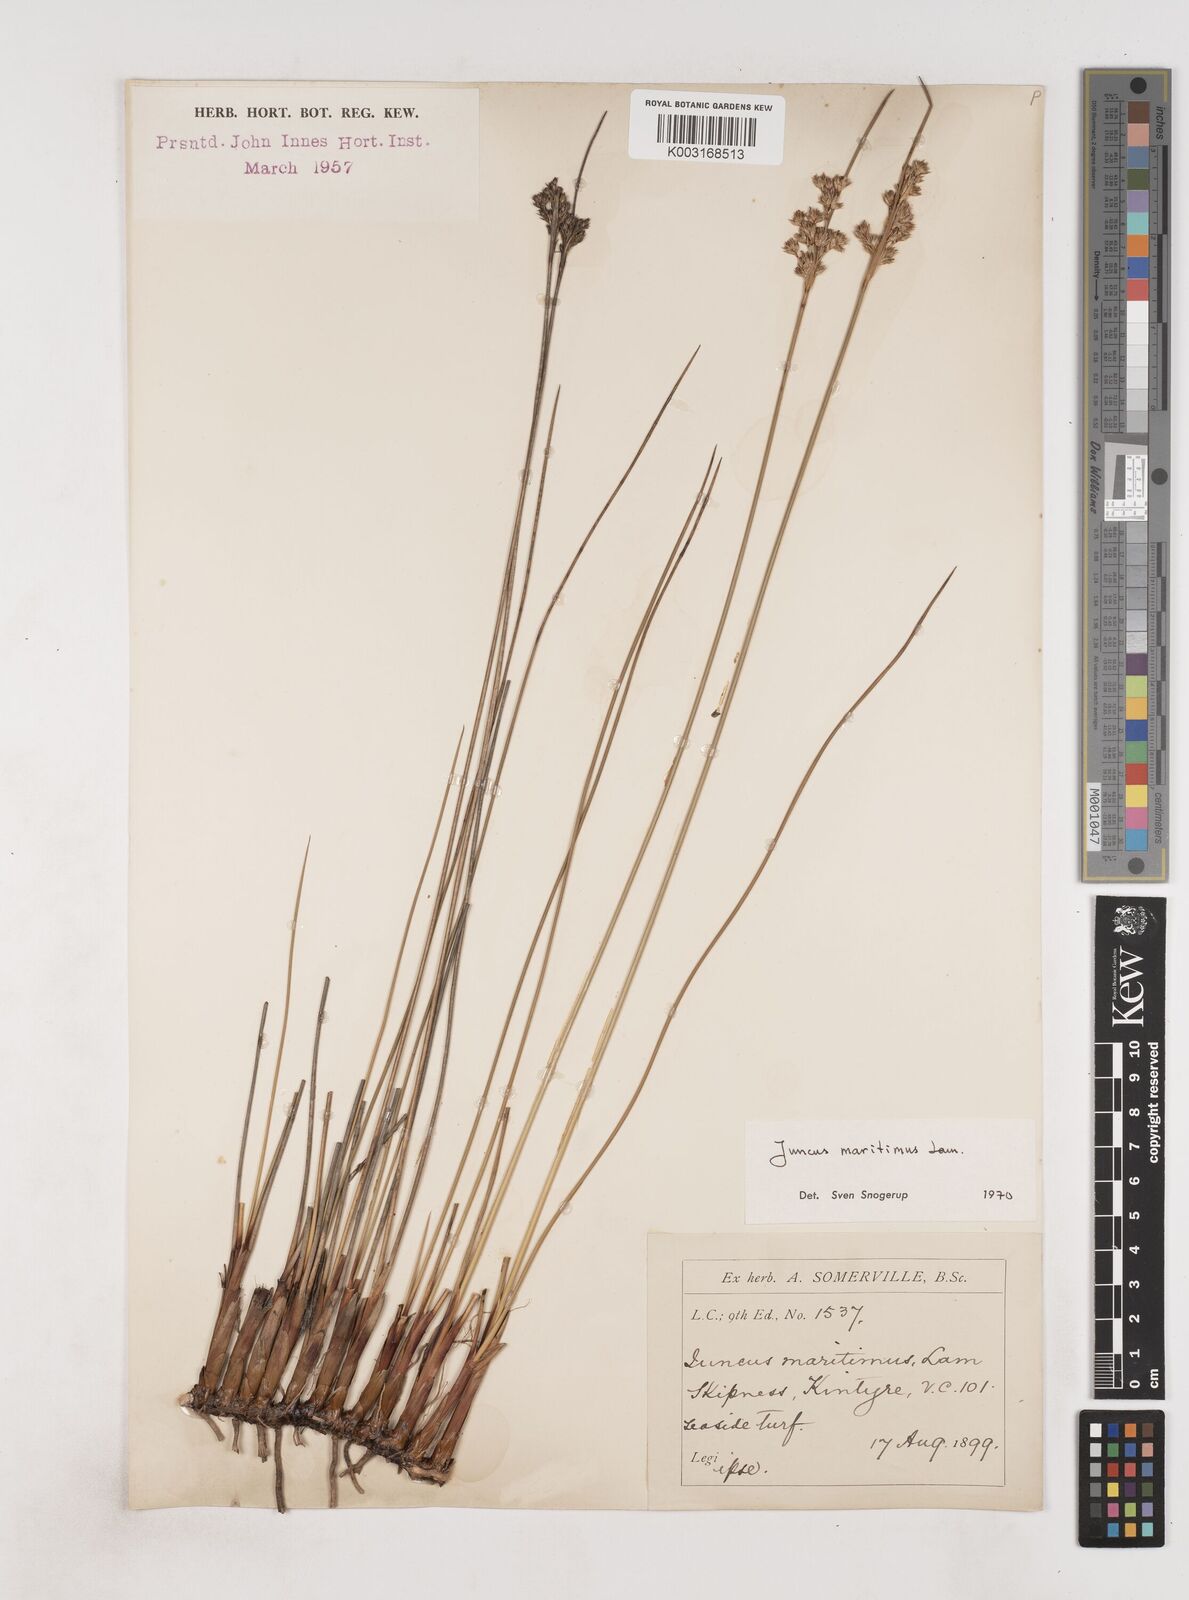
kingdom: Plantae
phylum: Tracheophyta
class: Liliopsida
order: Poales
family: Juncaceae
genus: Juncus
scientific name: Juncus maritimus
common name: Sea rush
